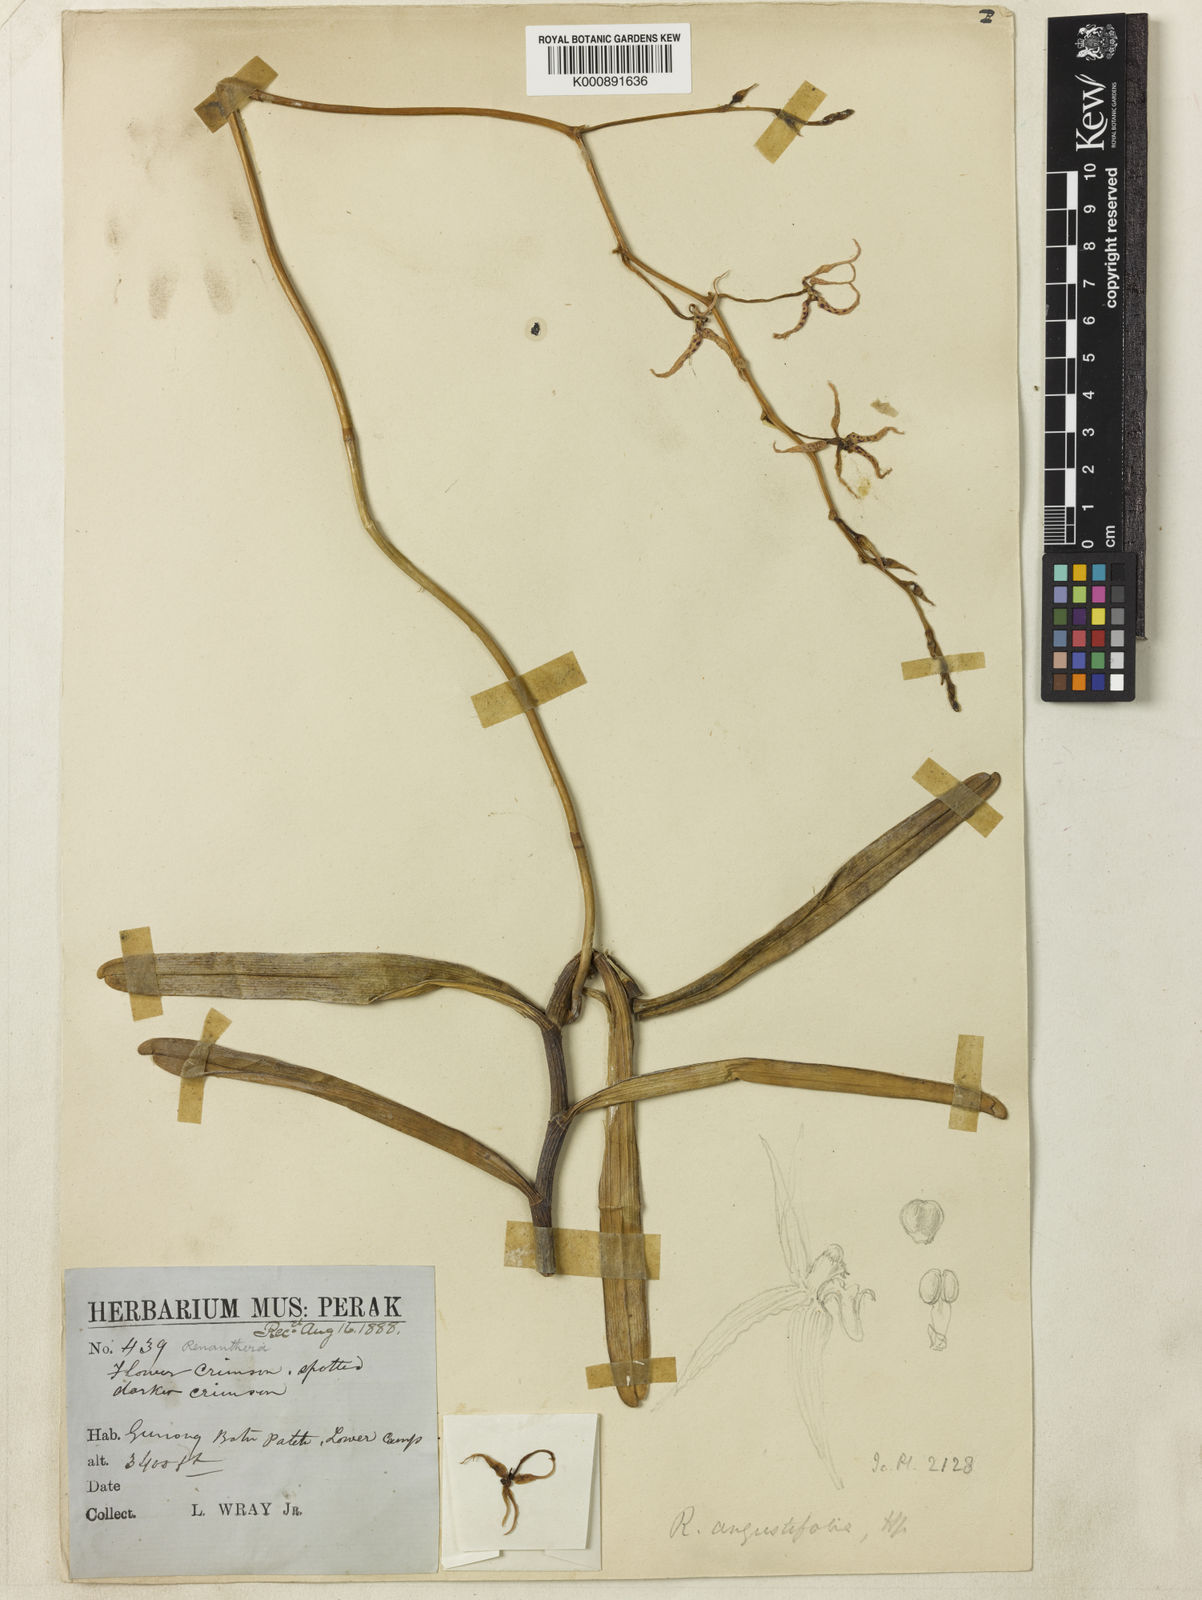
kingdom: Plantae
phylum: Tracheophyta
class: Liliopsida
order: Asparagales
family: Orchidaceae
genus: Renanthera
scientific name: Renanthera matutina
